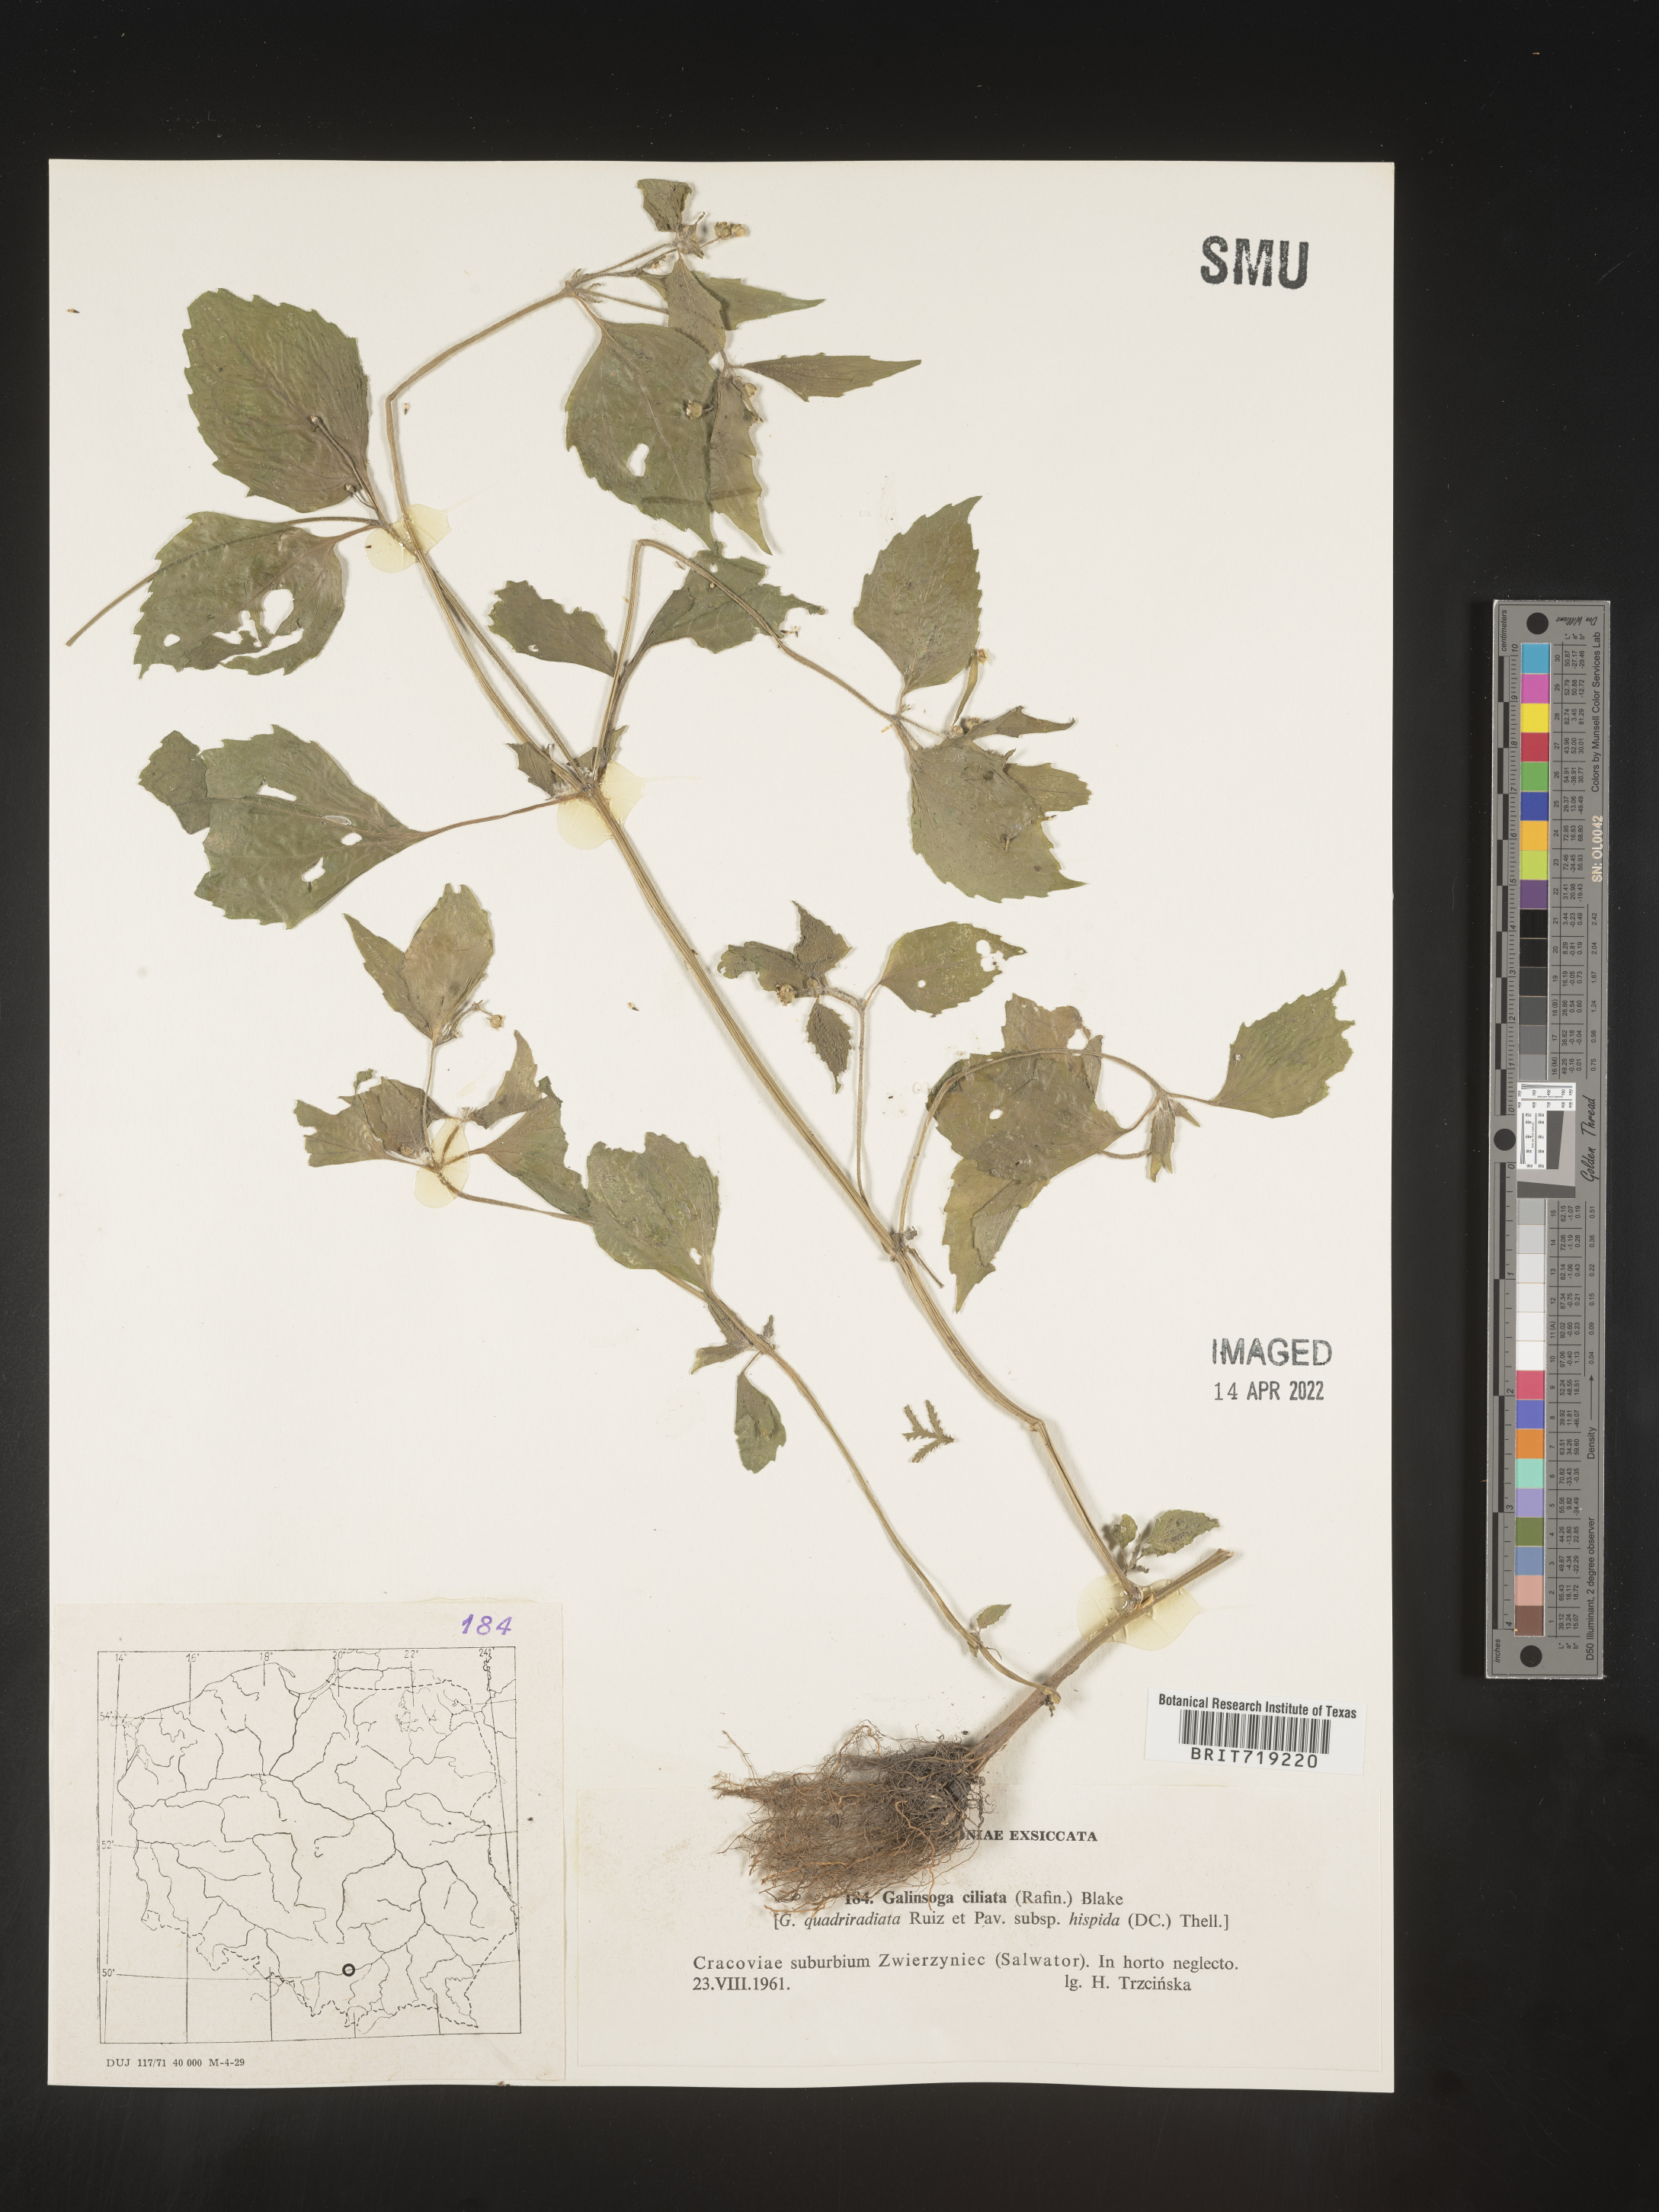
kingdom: Plantae
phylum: Tracheophyta
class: Magnoliopsida
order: Asterales
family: Asteraceae
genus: Galinsoga
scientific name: Galinsoga
